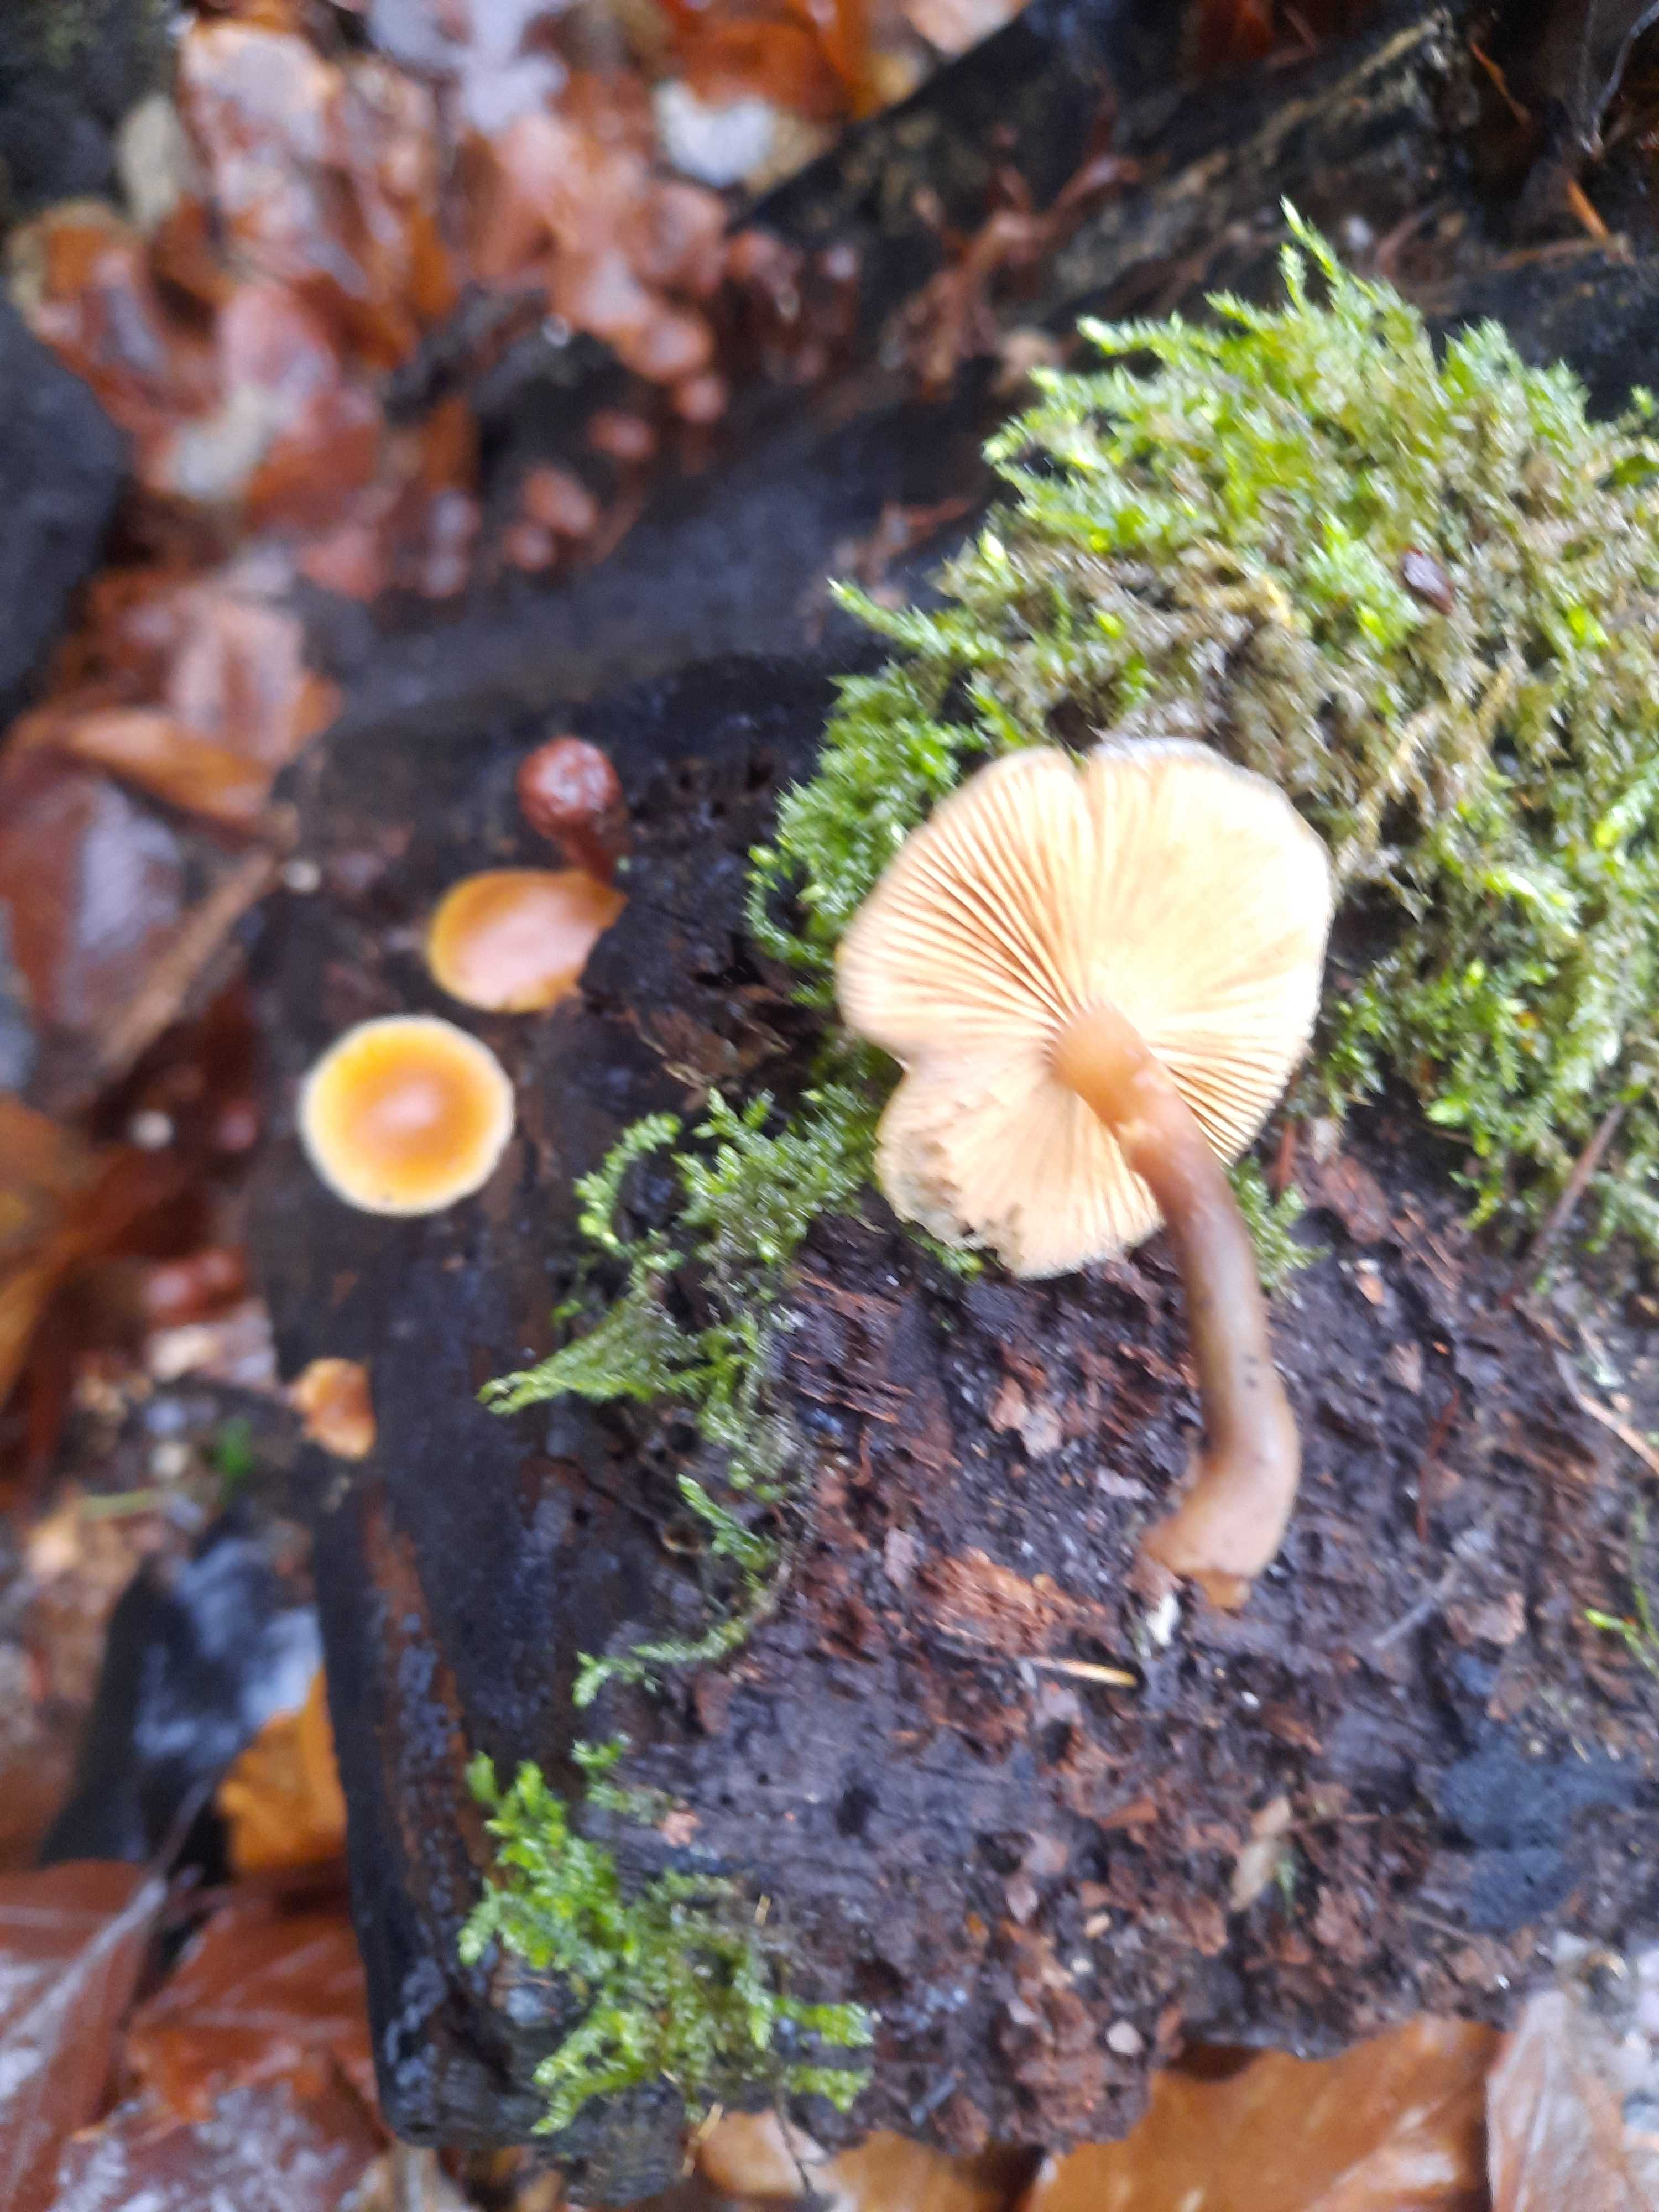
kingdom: Fungi
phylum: Basidiomycota
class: Agaricomycetes
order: Agaricales
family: Hymenogastraceae
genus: Galerina
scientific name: Galerina marginata
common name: randbæltet hjelmhat
